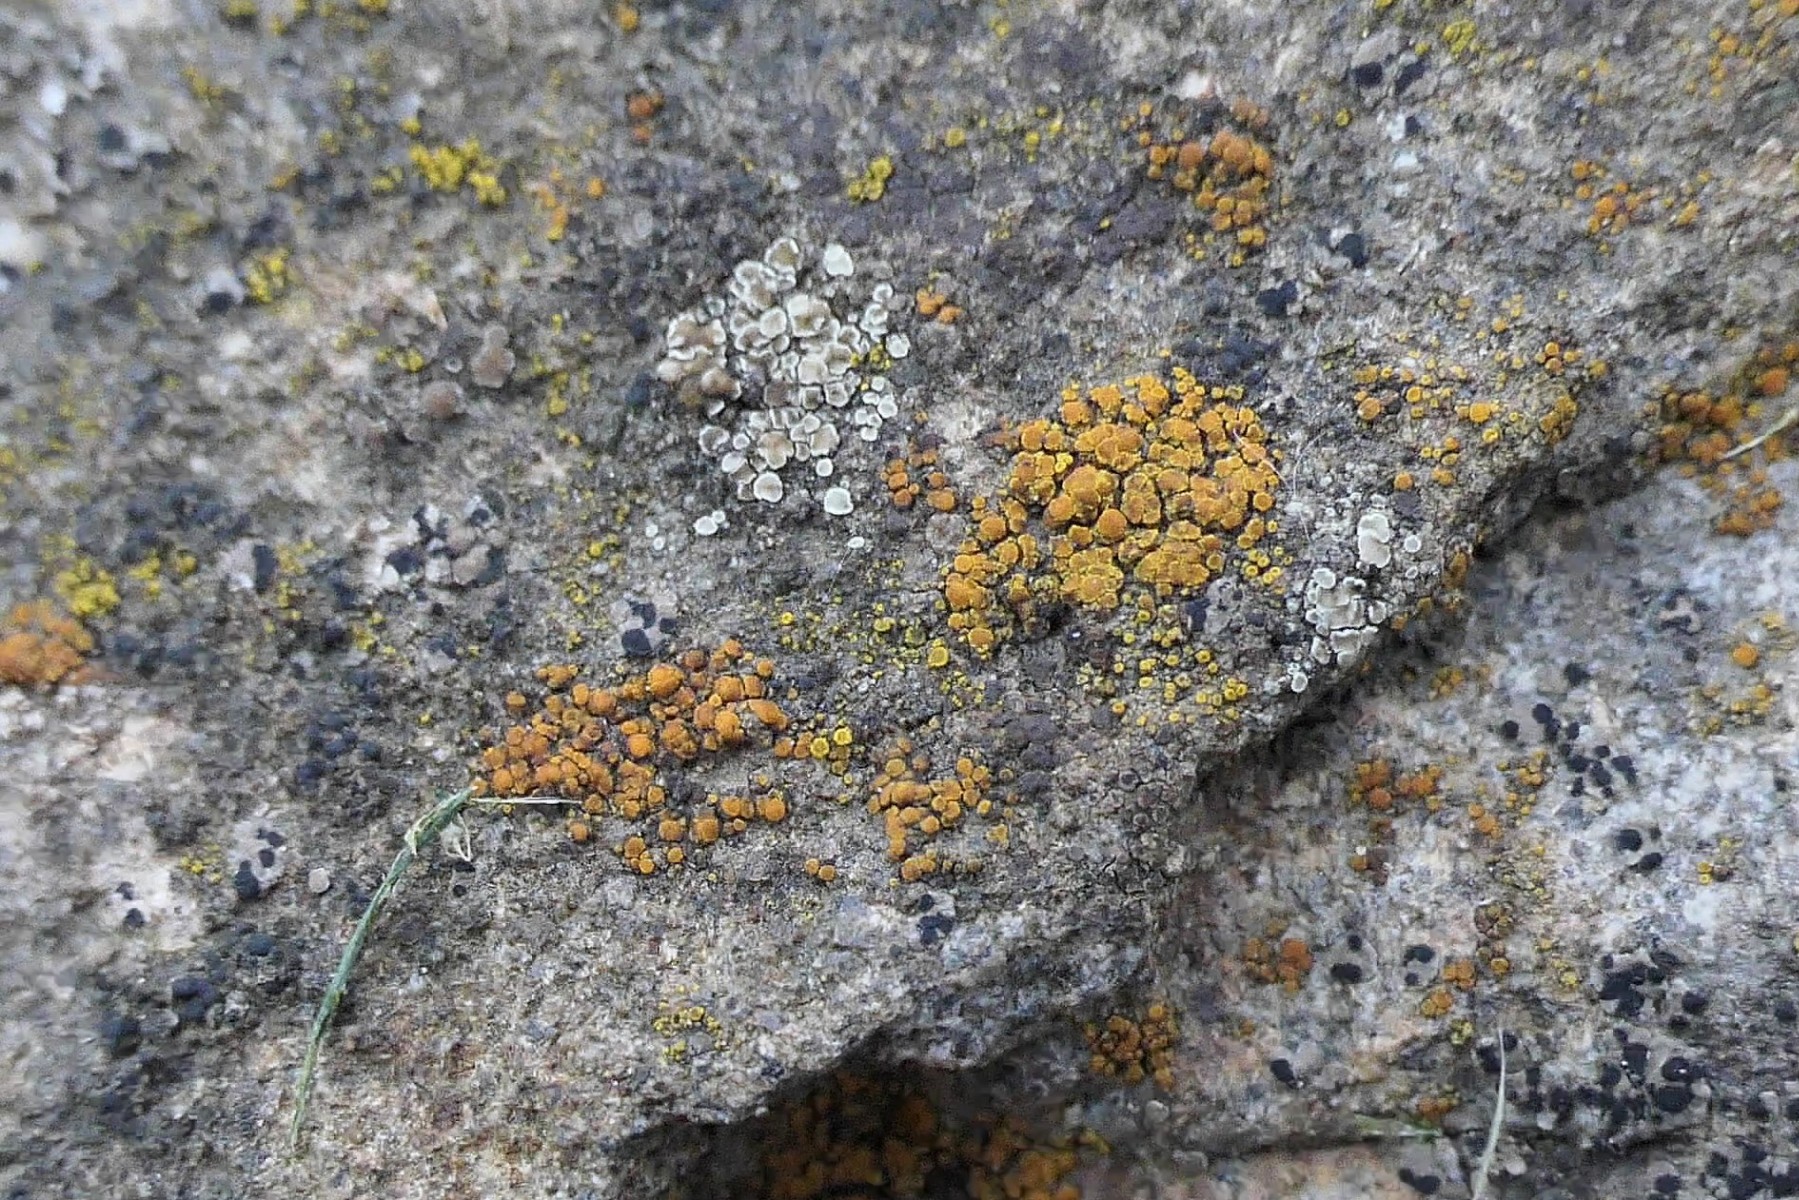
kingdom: Fungi
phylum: Ascomycota
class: Lecanoromycetes
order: Teloschistales
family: Teloschistaceae
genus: Athallia
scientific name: Athallia holocarpa
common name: liden orangelav
